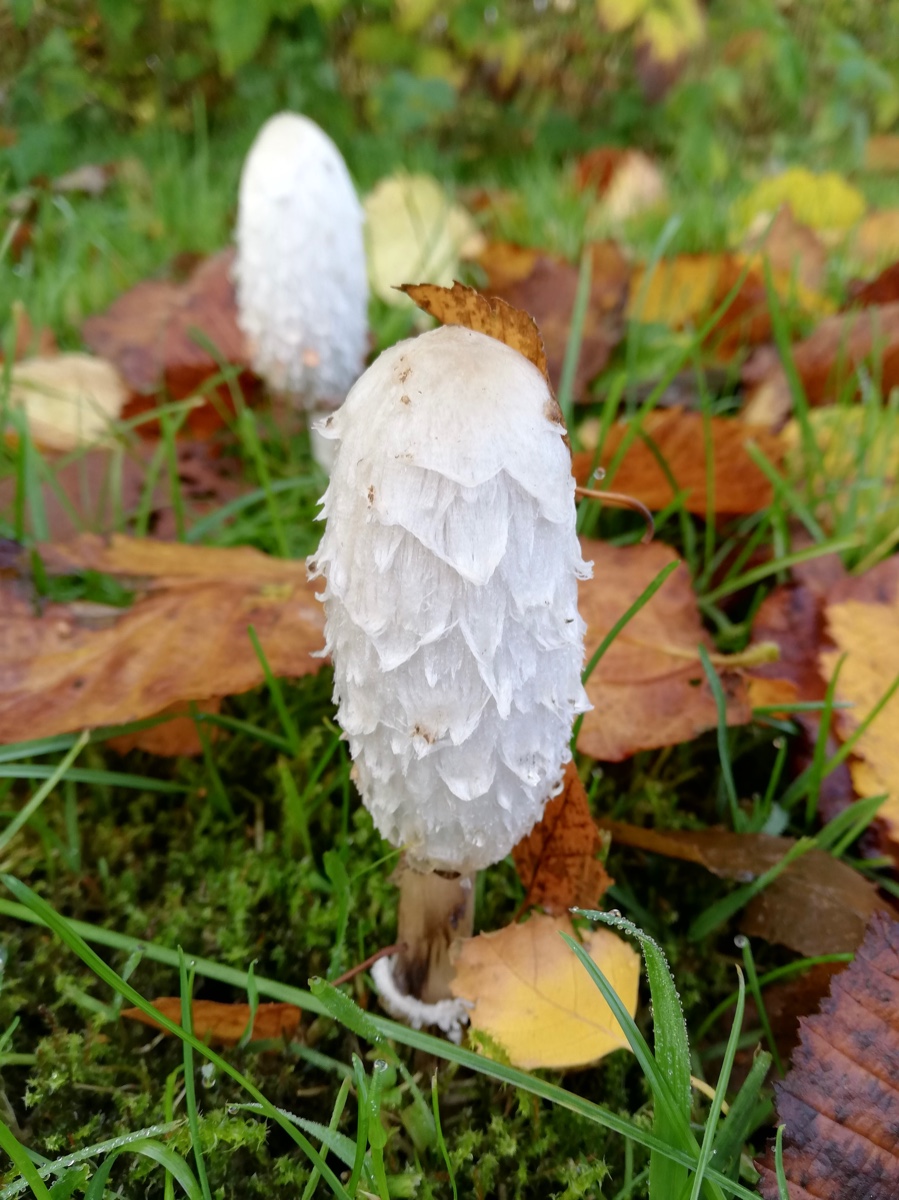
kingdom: Fungi
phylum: Basidiomycota
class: Agaricomycetes
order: Agaricales
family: Agaricaceae
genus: Coprinus
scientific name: Coprinus comatus
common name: stor parykhat
